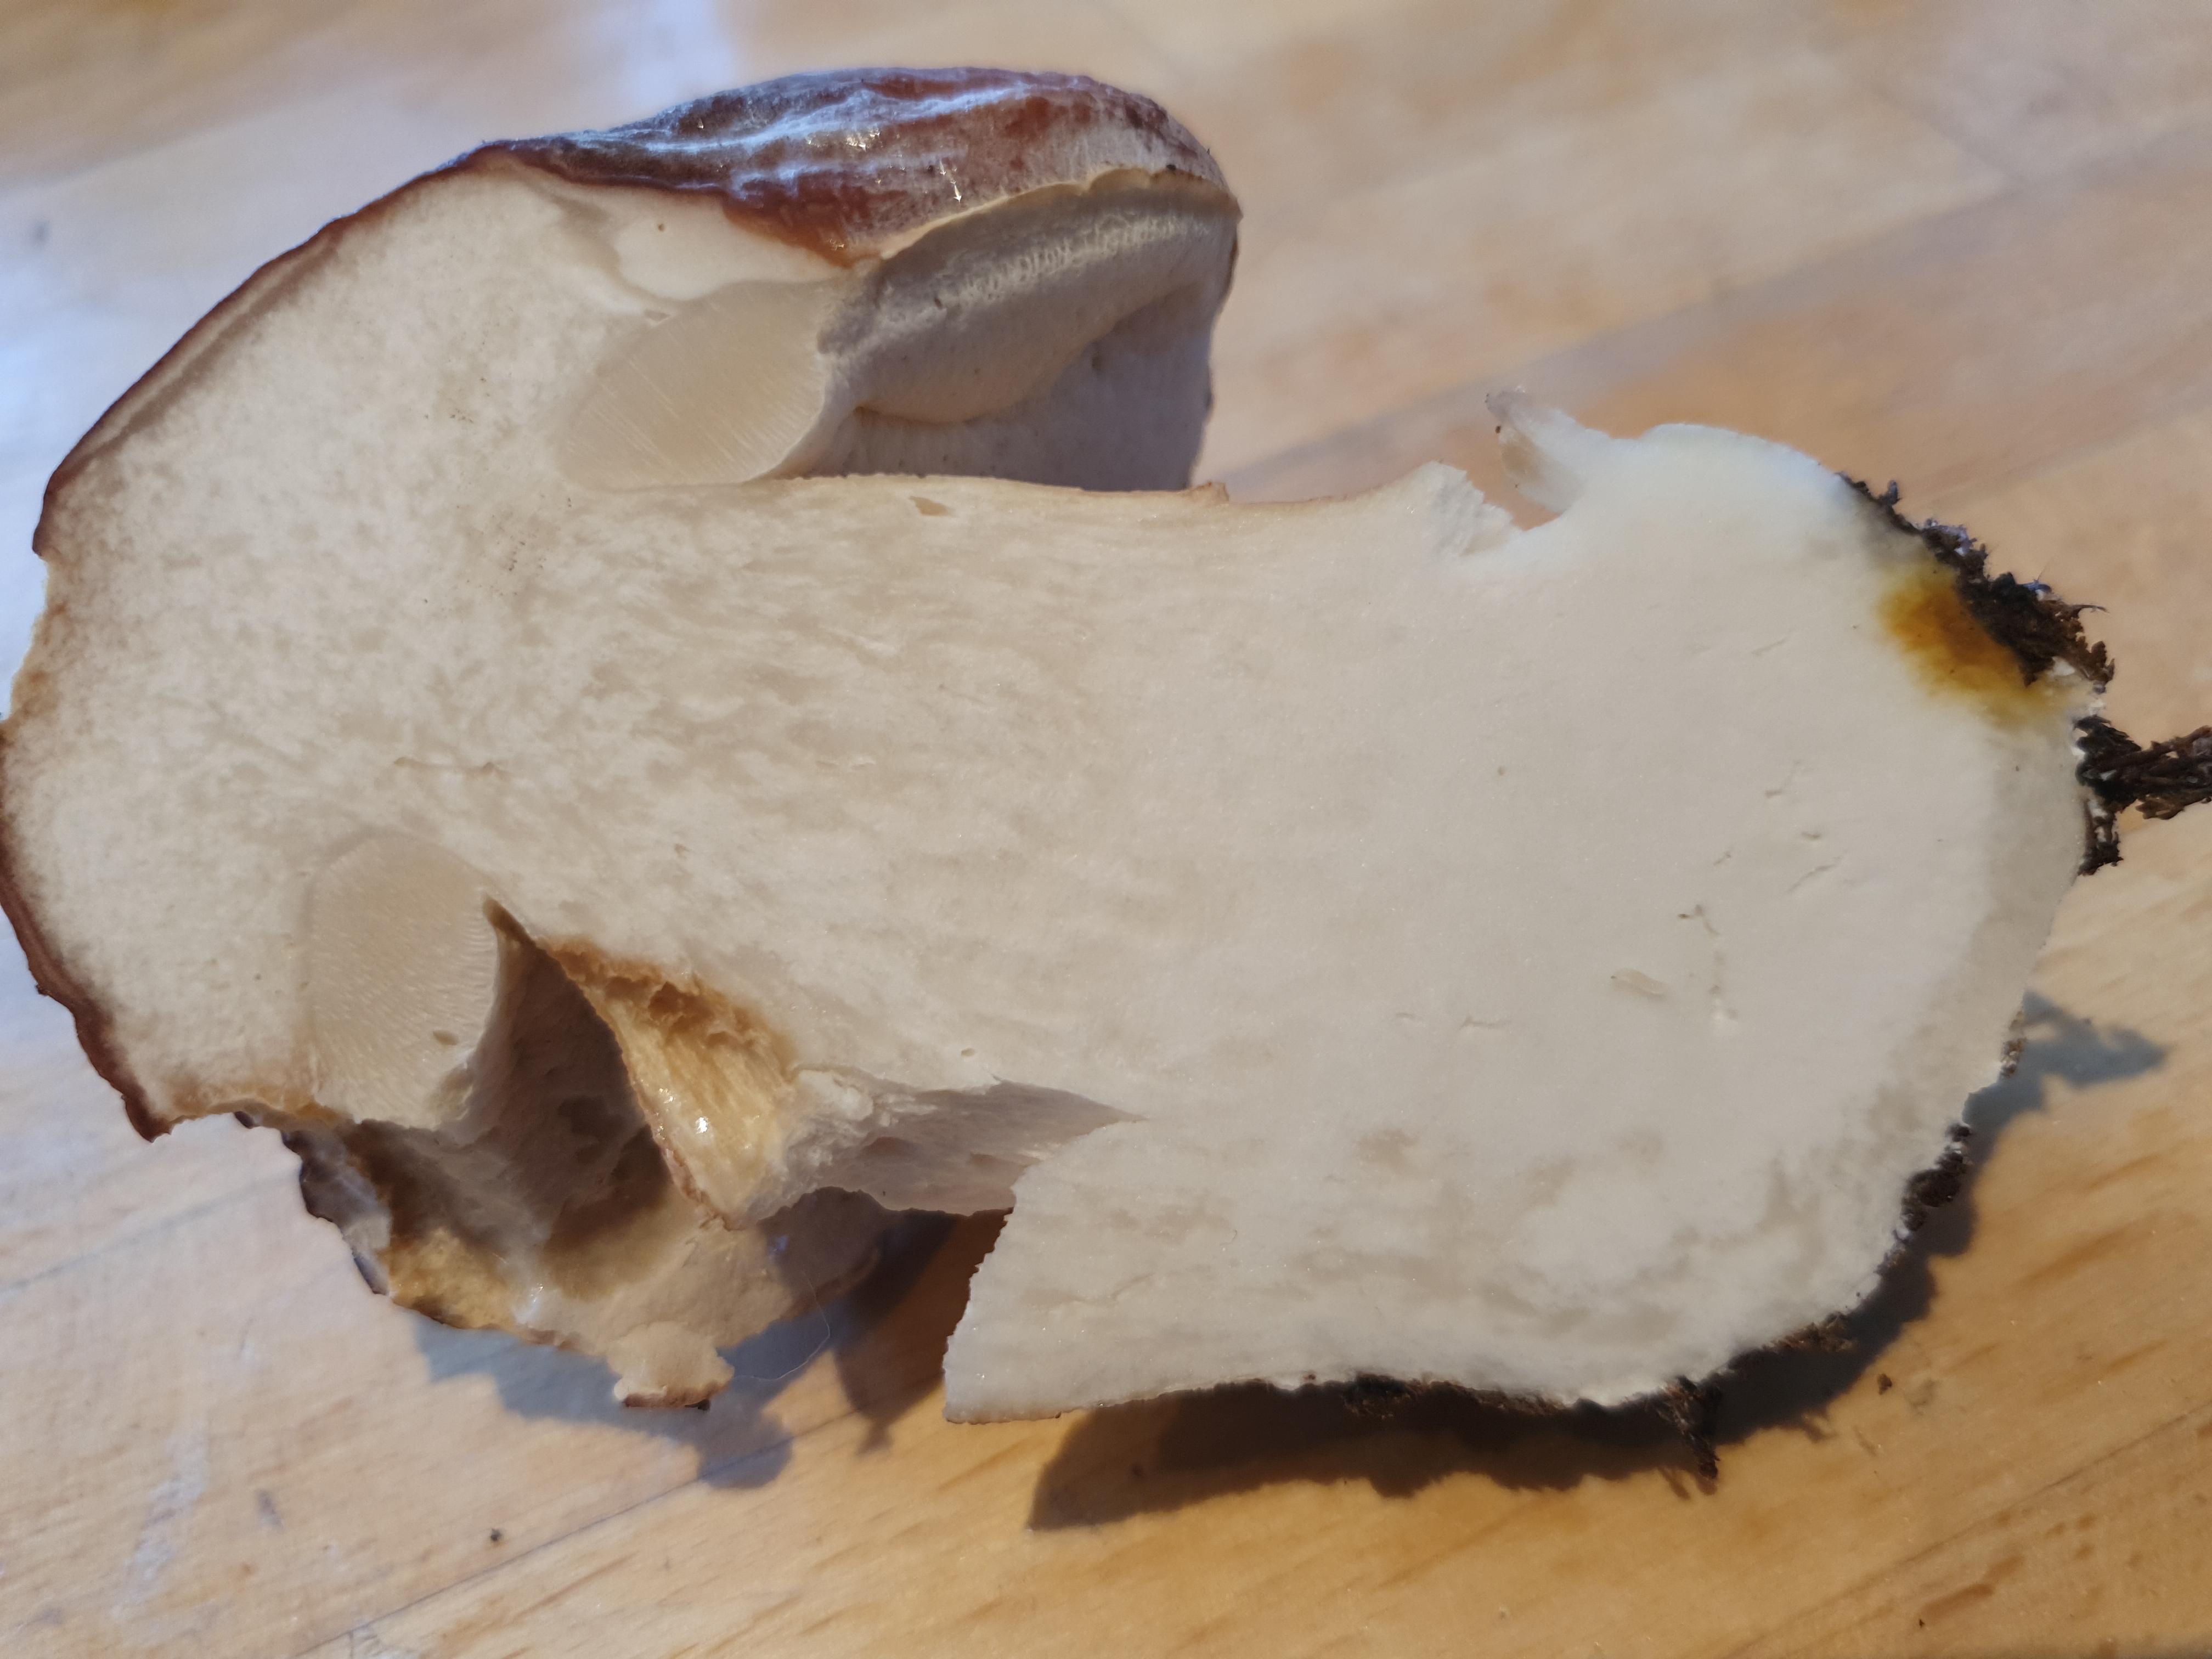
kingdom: Fungi
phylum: Basidiomycota
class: Agaricomycetes
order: Boletales
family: Boletaceae
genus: Boletus
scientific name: Boletus edulis
